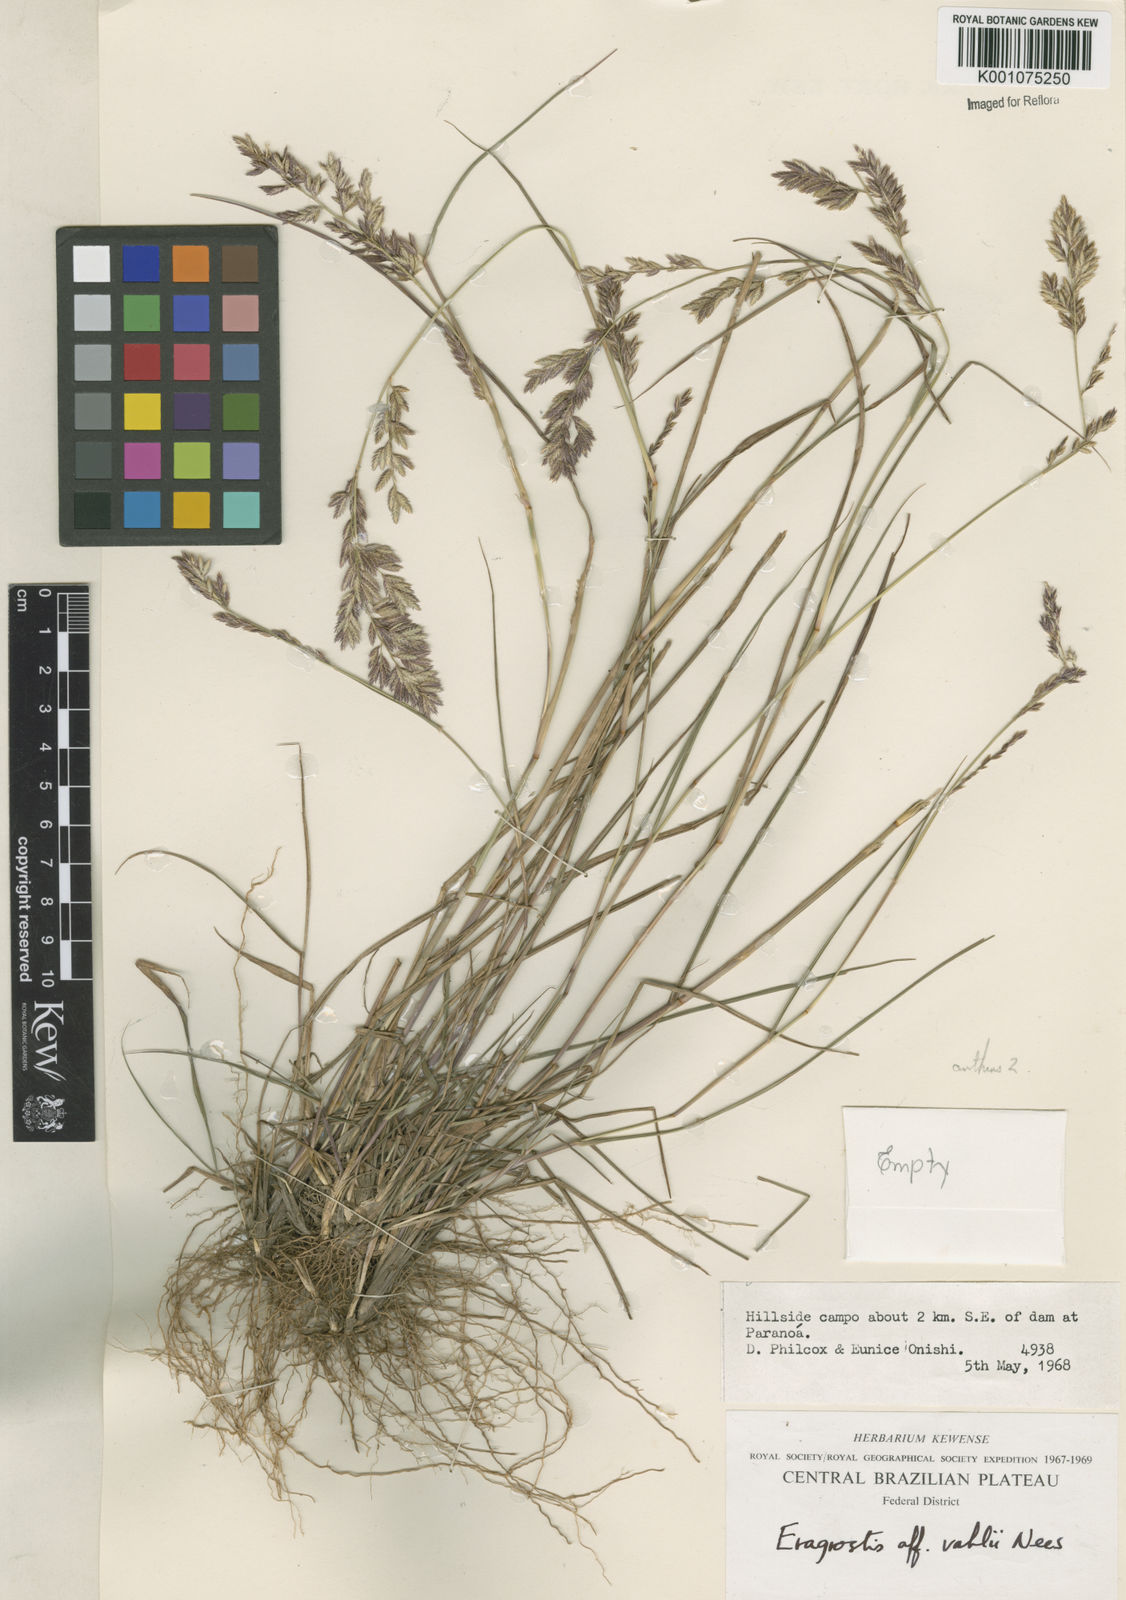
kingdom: Plantae
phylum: Tracheophyta
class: Liliopsida
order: Poales
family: Poaceae
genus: Eragrostis
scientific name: Eragrostis secundiflora
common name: Red love grass
